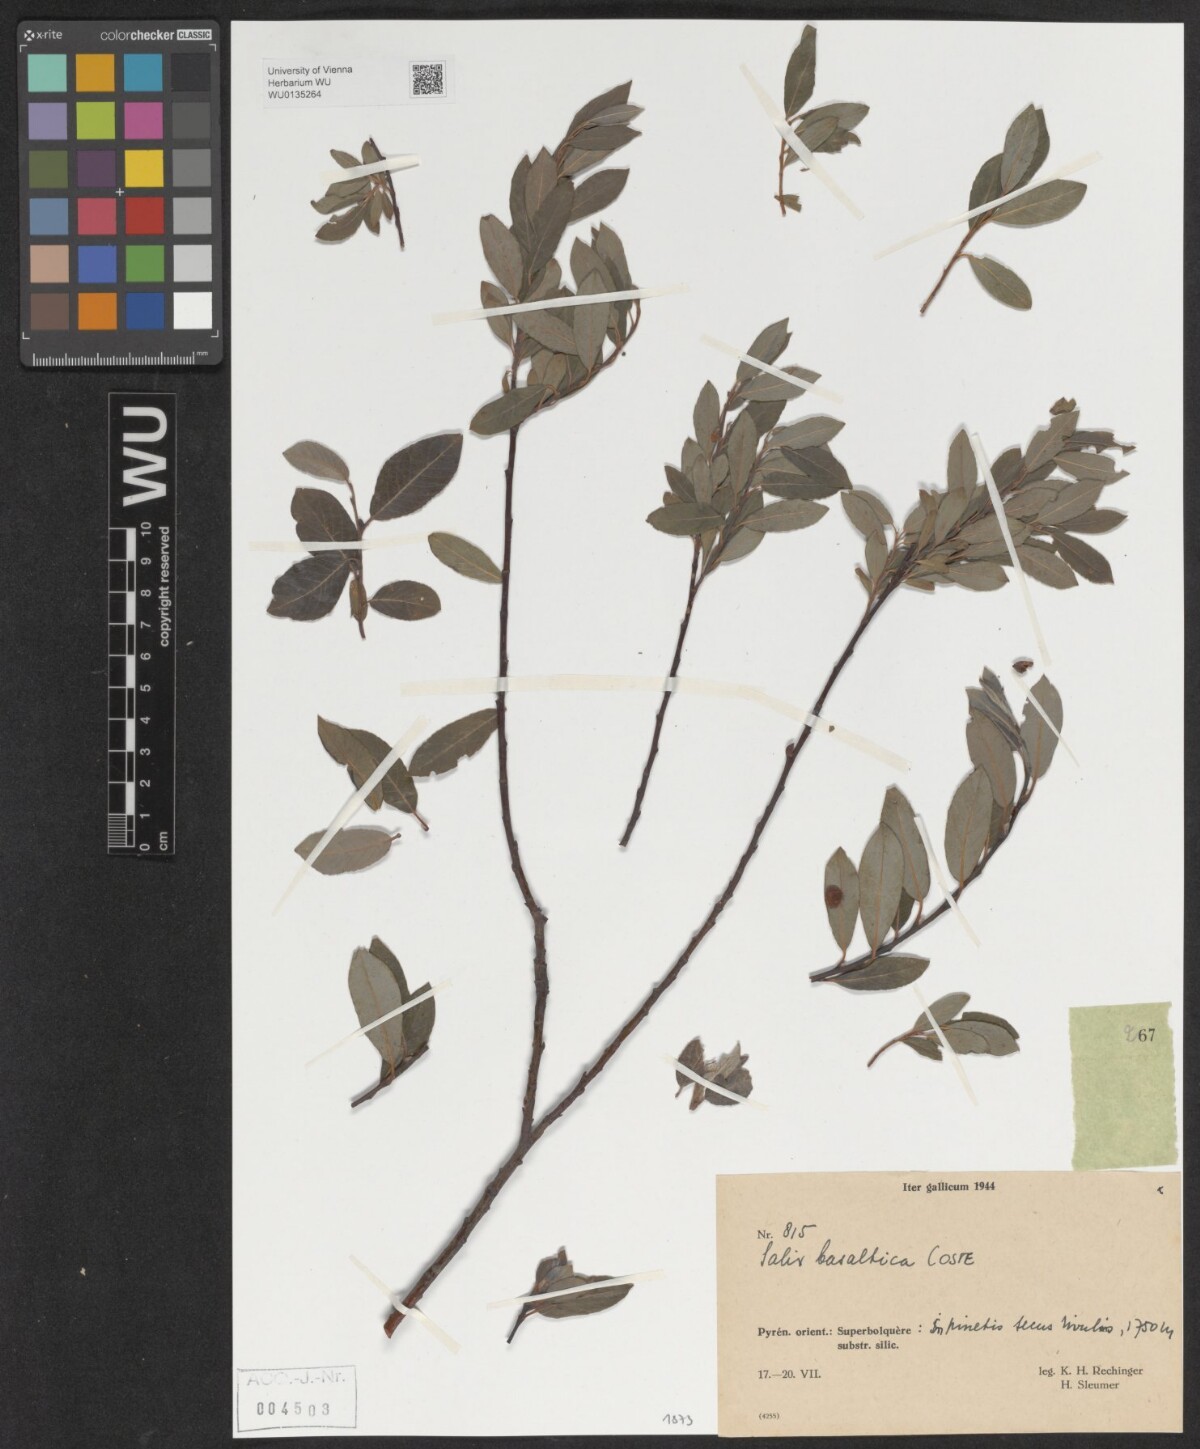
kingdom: Plantae
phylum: Tracheophyta
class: Magnoliopsida
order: Malpighiales
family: Salicaceae
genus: Salix
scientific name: Salix basaltica
